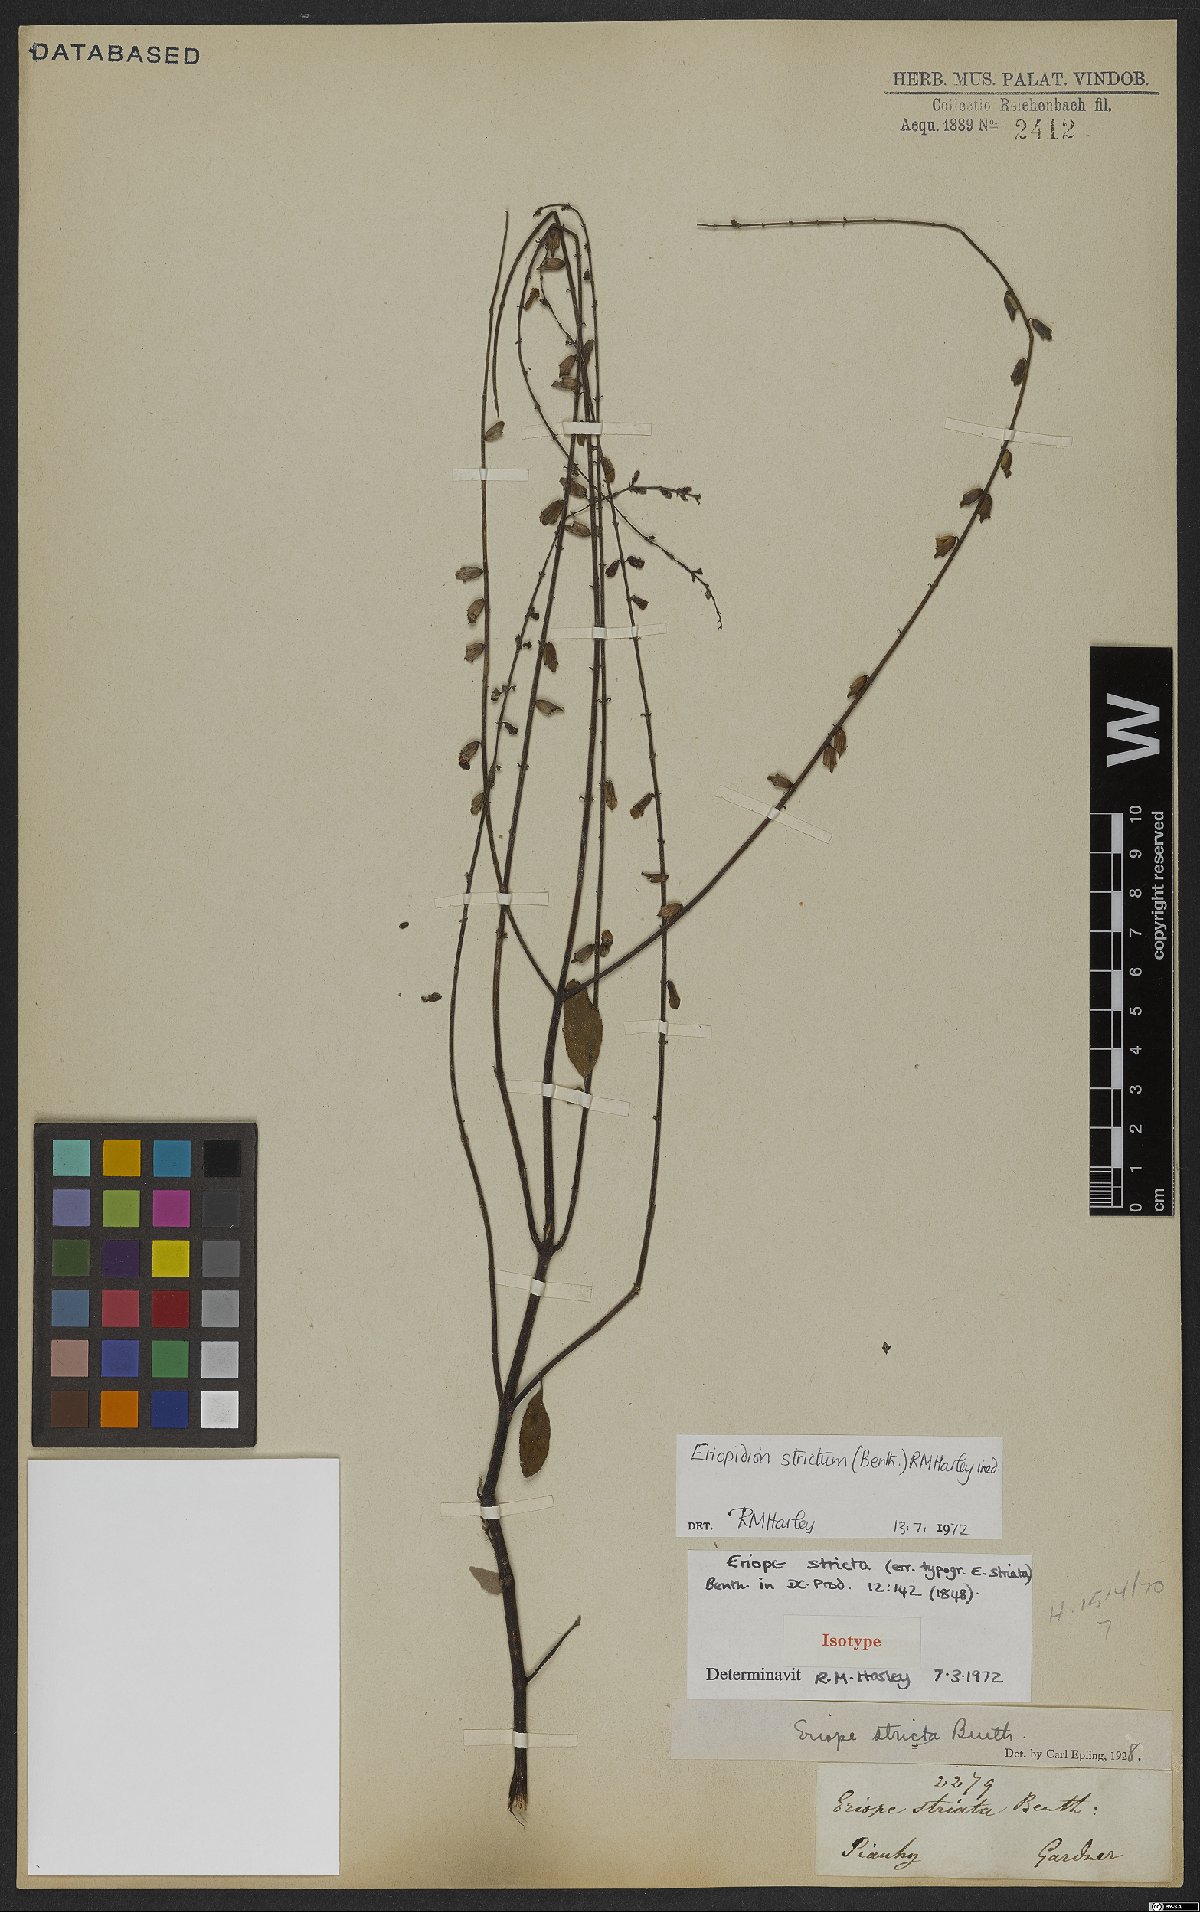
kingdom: Plantae
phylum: Tracheophyta
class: Magnoliopsida
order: Lamiales
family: Lamiaceae
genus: Eriopidion
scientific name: Eriopidion strictum
